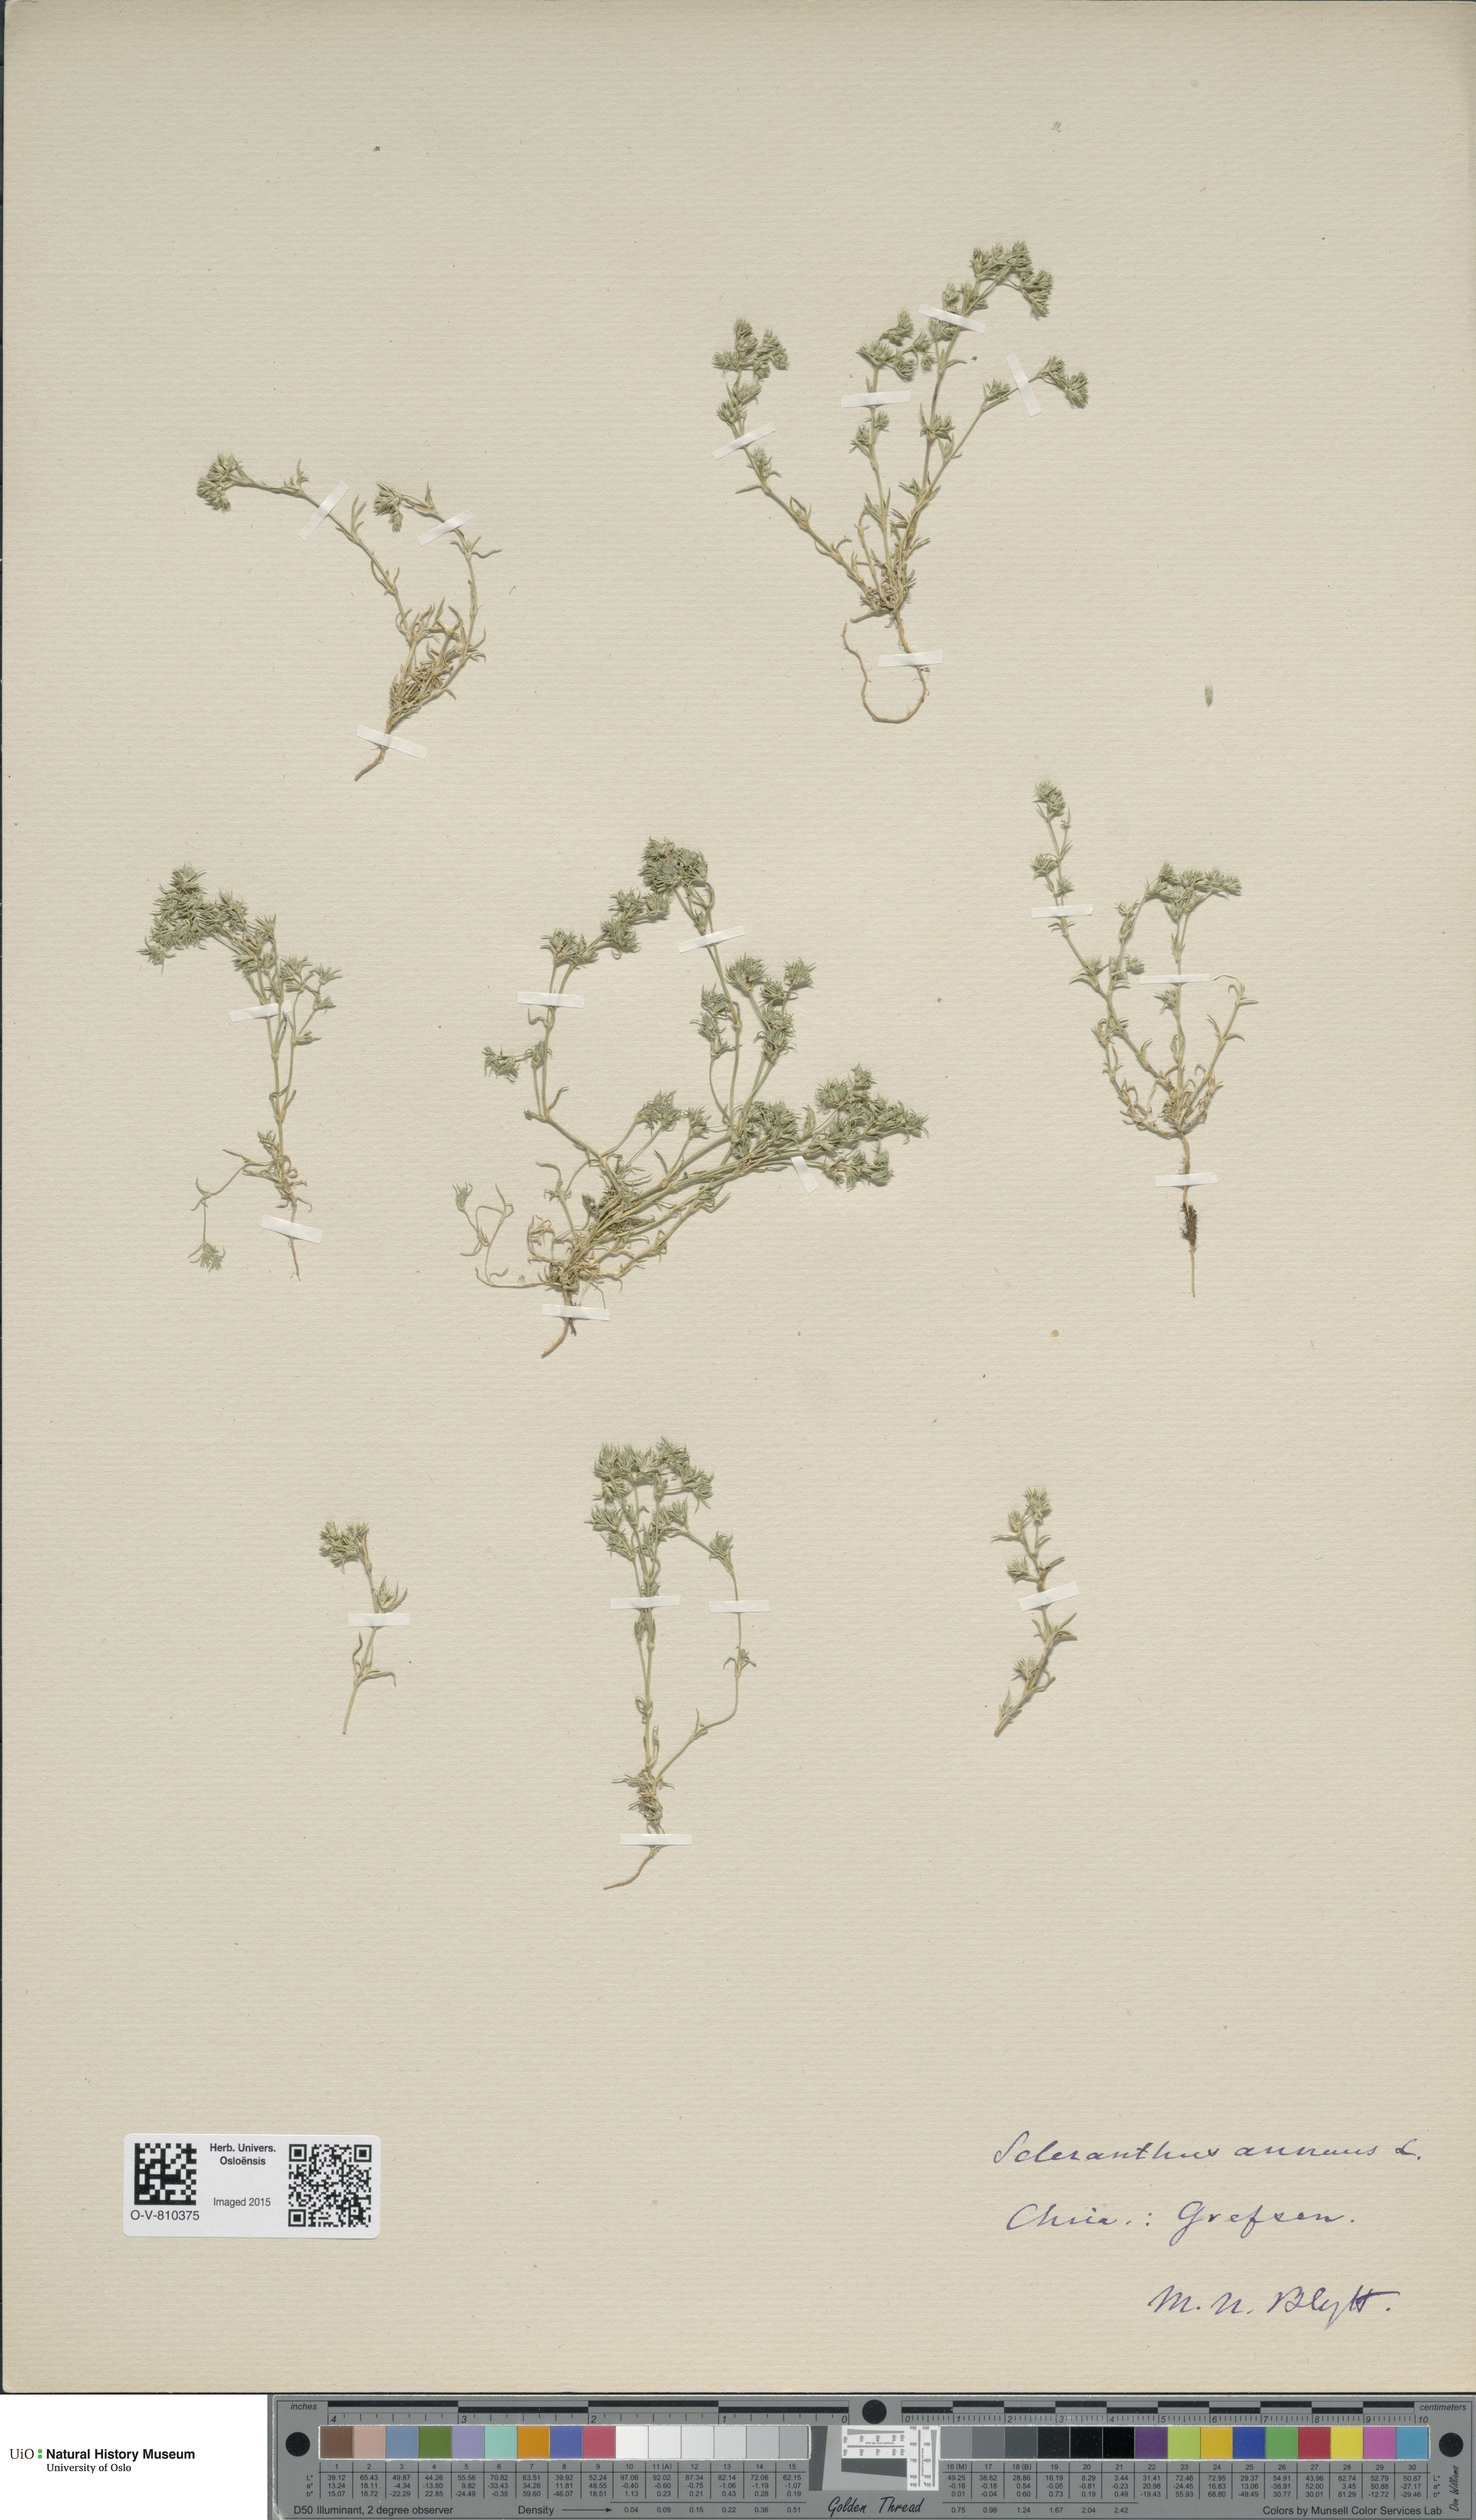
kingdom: Plantae
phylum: Tracheophyta
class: Magnoliopsida
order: Caryophyllales
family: Caryophyllaceae
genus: Scleranthus
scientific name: Scleranthus annuus
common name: Annual knawel
